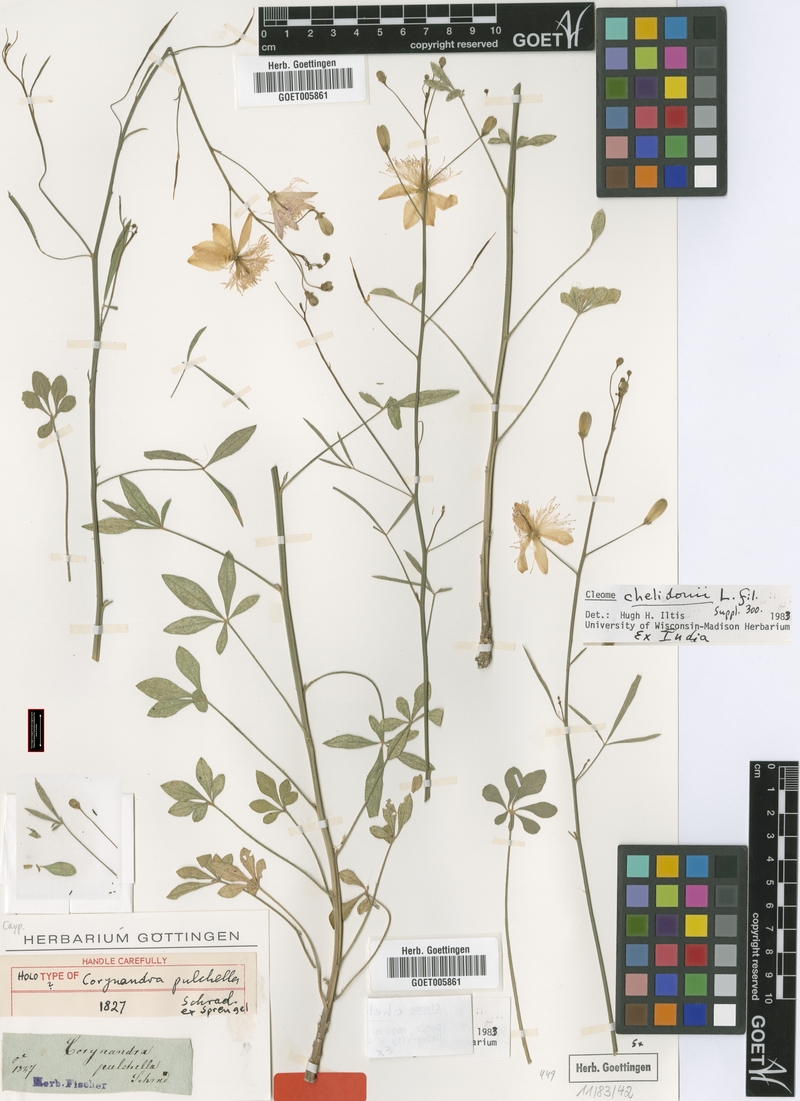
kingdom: Plantae
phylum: Tracheophyta
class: Magnoliopsida
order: Brassicales
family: Cleomaceae
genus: Corynandra
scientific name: Corynandra chelidonii
